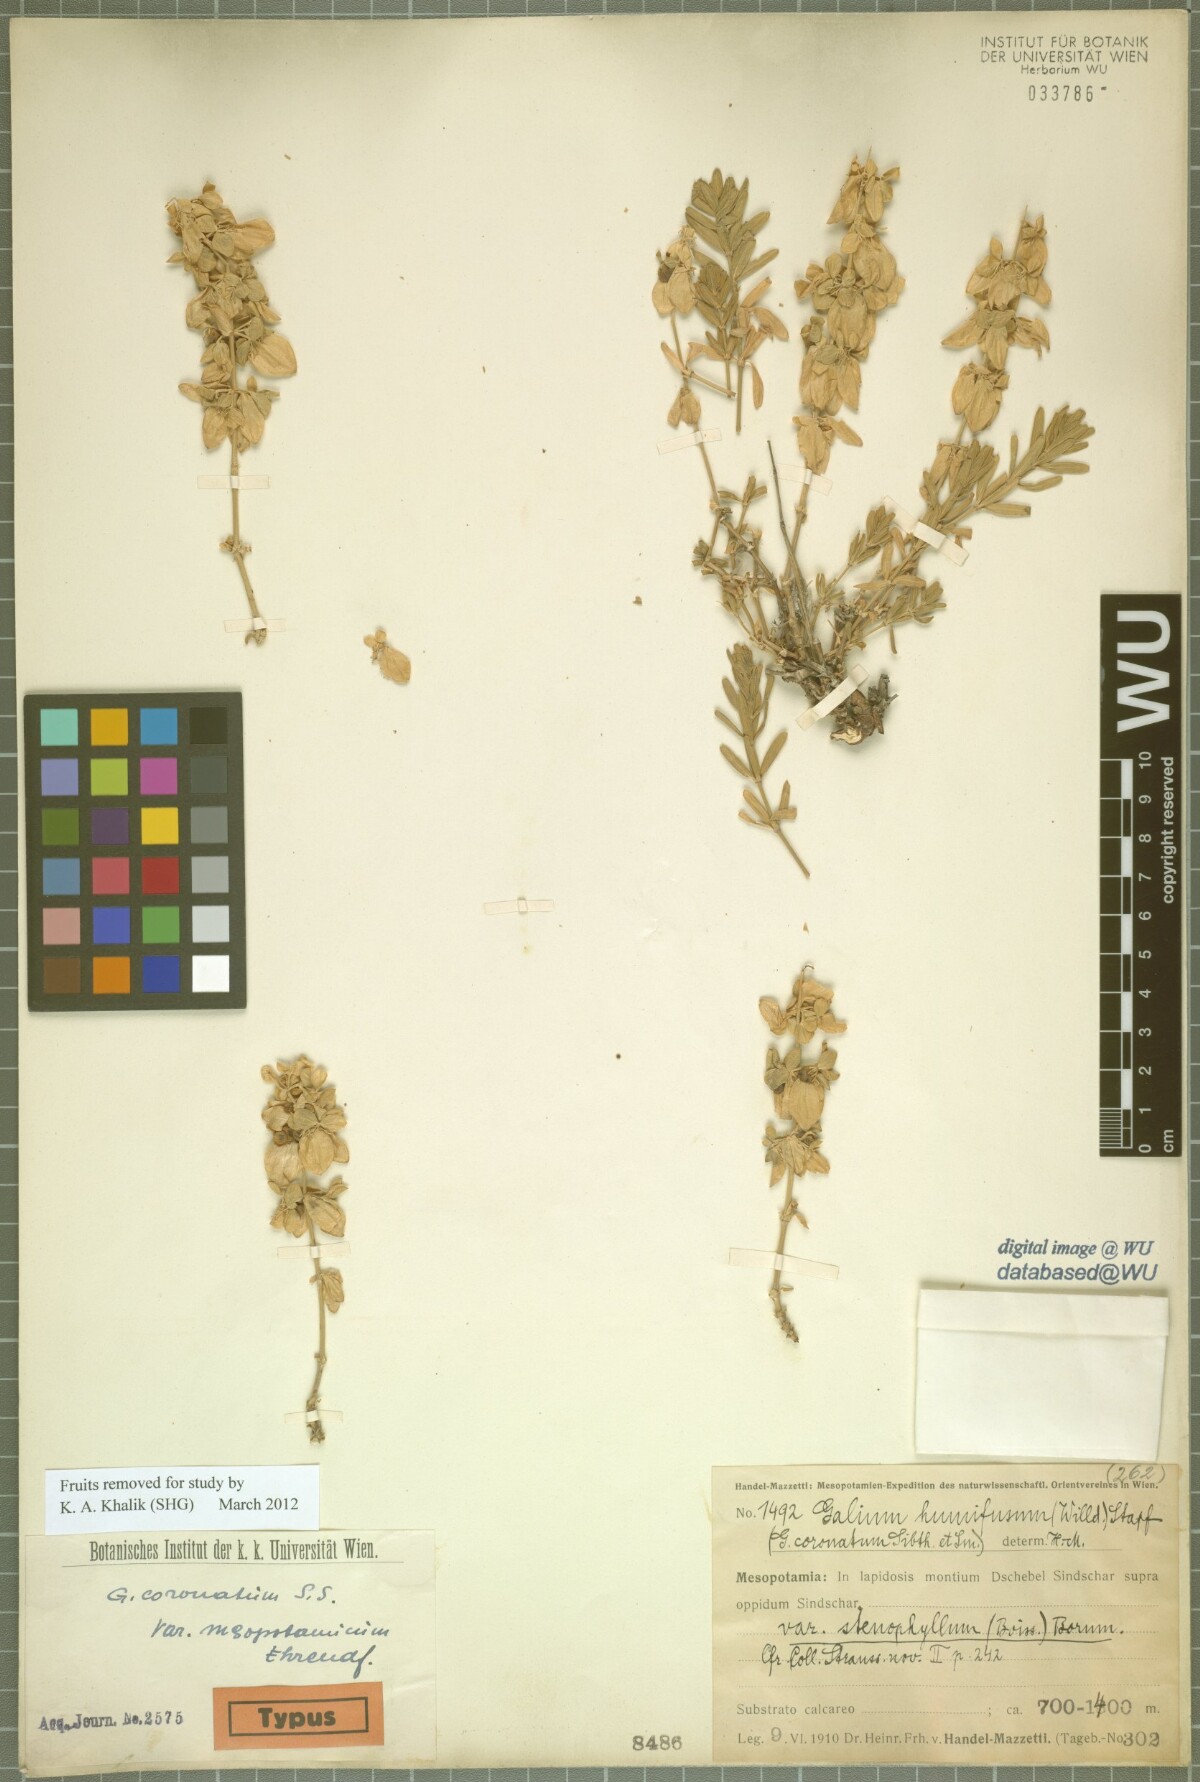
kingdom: Plantae
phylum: Tracheophyta
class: Magnoliopsida
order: Gentianales
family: Rubiaceae
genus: Cruciata
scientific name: Cruciata taurica
